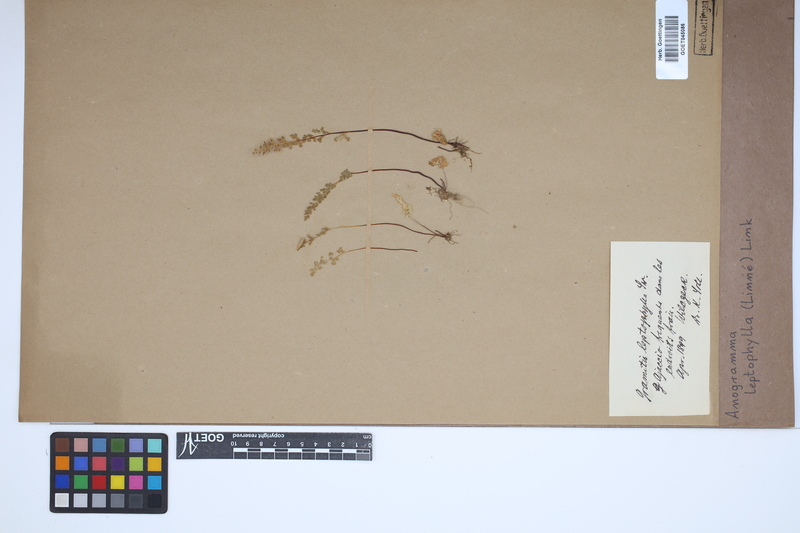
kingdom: Plantae
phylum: Tracheophyta
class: Polypodiopsida
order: Polypodiales
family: Pteridaceae
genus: Anogramma
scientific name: Anogramma leptophylla
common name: Jersey fern
